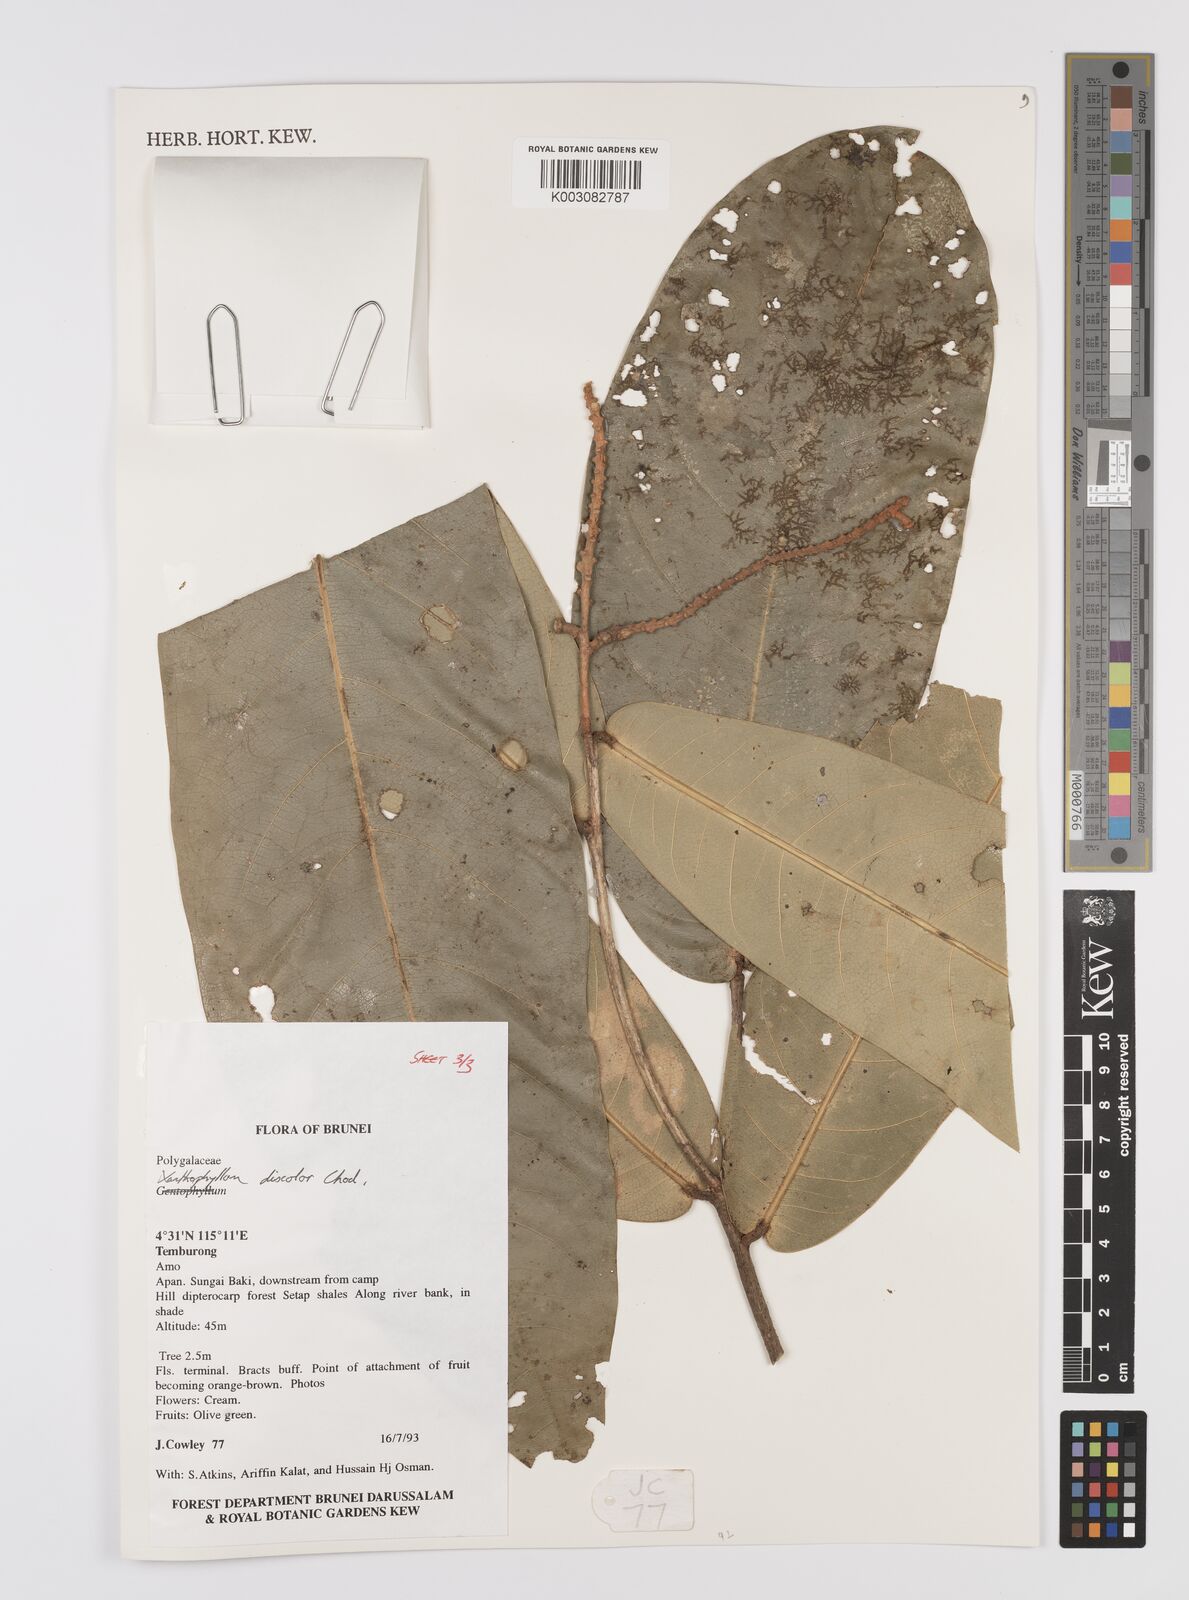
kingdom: Plantae
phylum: Tracheophyta
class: Magnoliopsida
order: Fabales
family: Polygalaceae
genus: Xanthophyllum
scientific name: Xanthophyllum discolor
